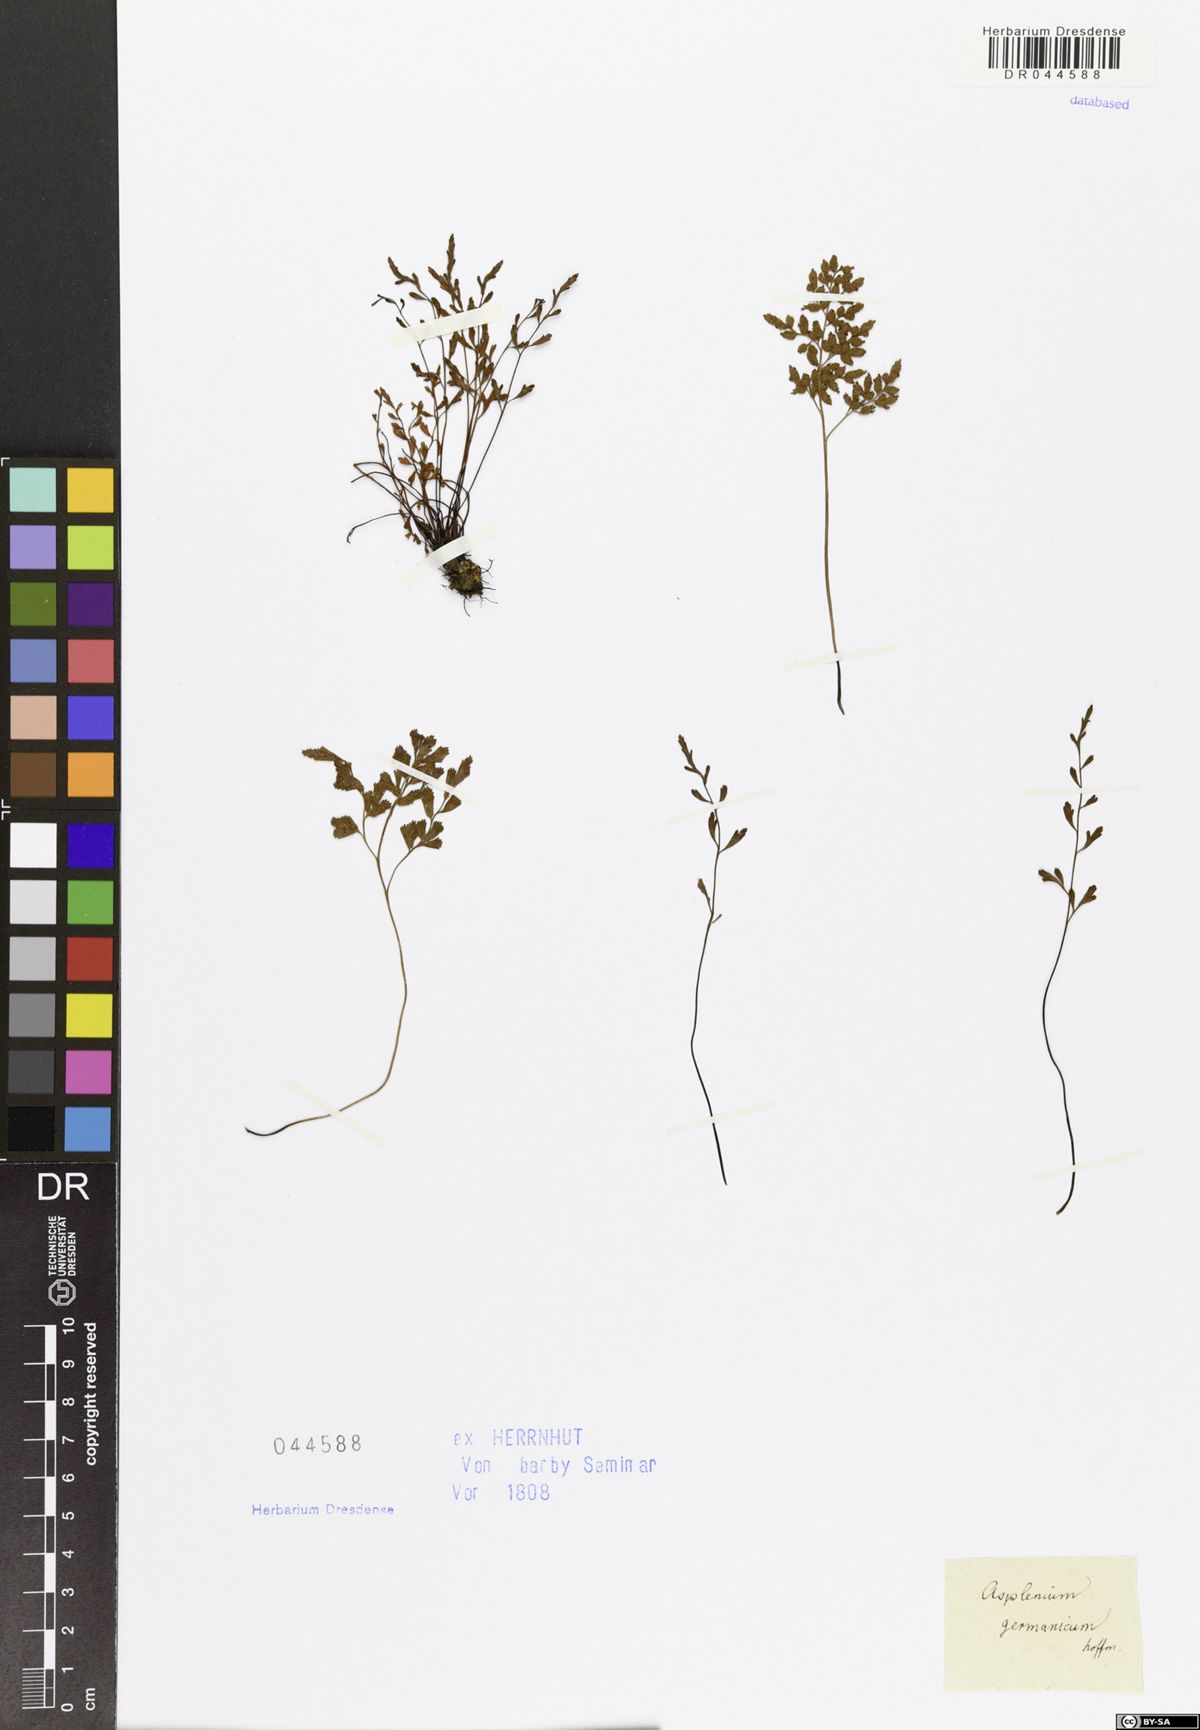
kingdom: Plantae
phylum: Tracheophyta
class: Polypodiopsida
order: Polypodiales
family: Aspleniaceae
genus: Asplenium
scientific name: Asplenium alternifolium
